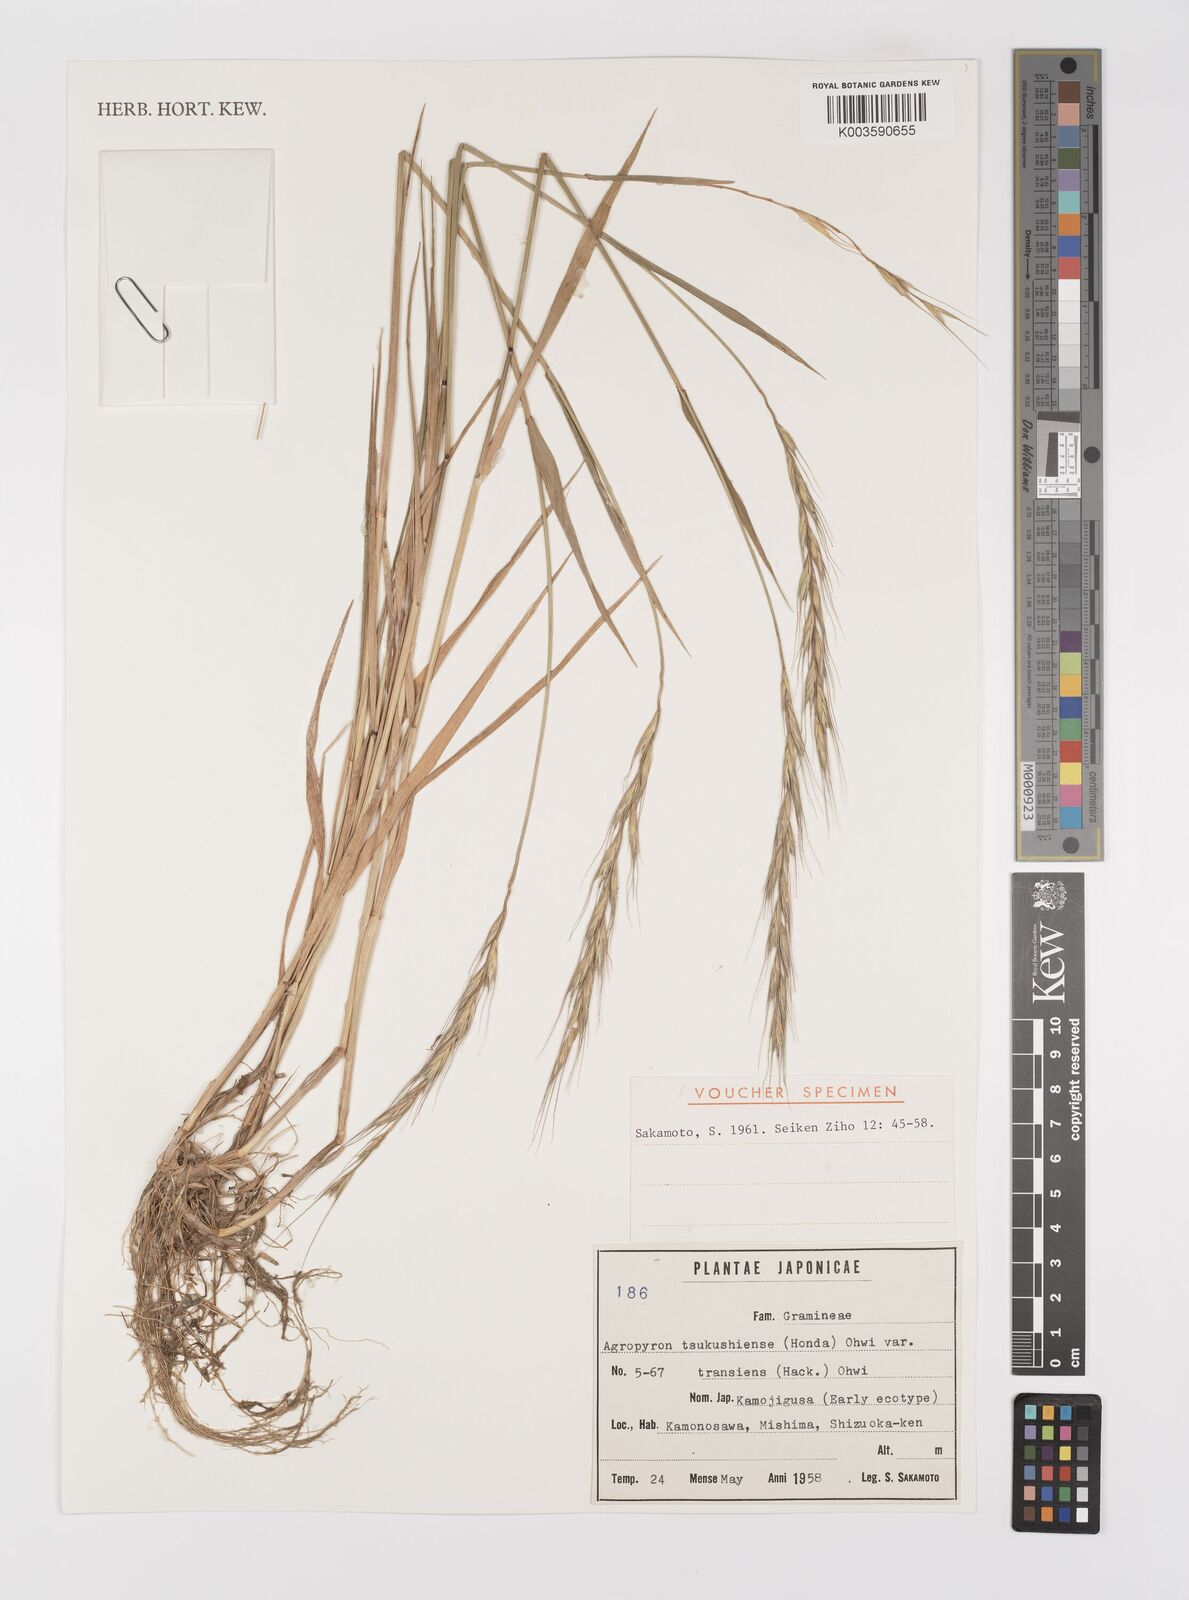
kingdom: Plantae
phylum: Tracheophyta
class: Liliopsida
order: Poales
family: Poaceae
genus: Elymus
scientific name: Elymus tsukushiensis
